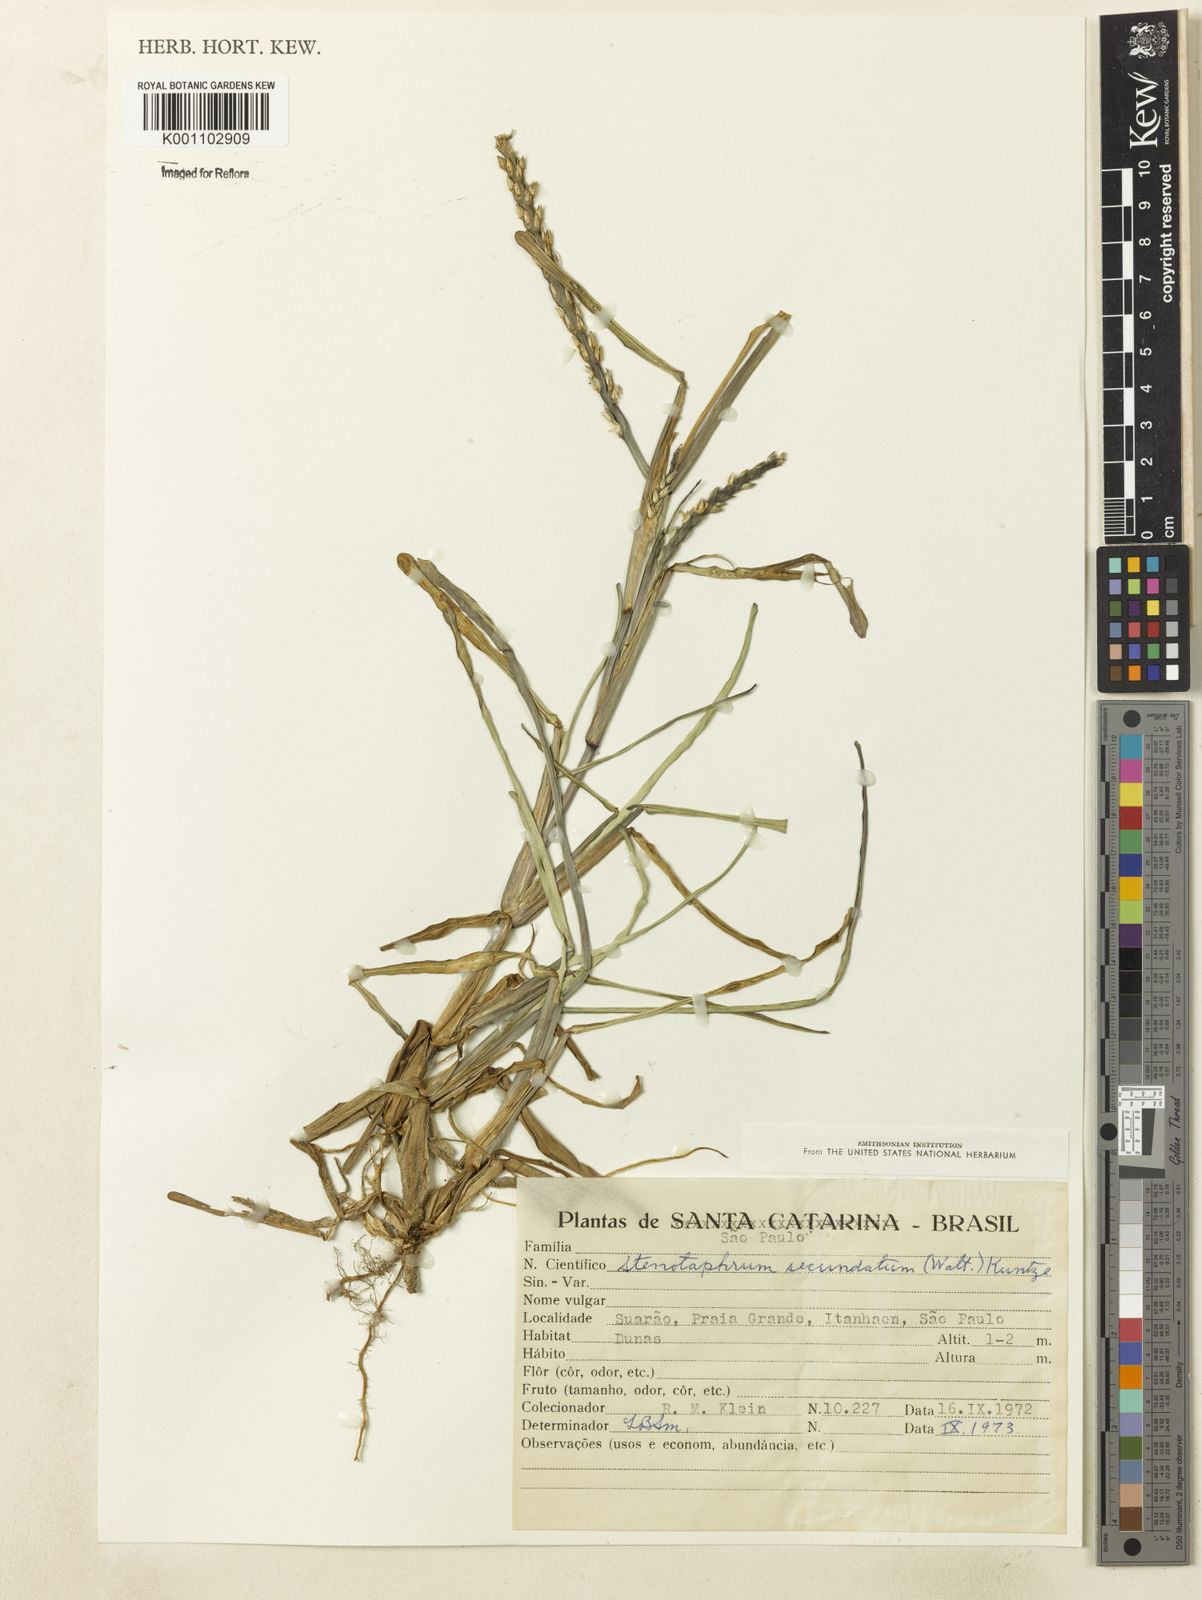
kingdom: Plantae
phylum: Tracheophyta
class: Liliopsida
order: Poales
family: Poaceae
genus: Stenotaphrum
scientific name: Stenotaphrum secundatum
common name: St. augustine grass
